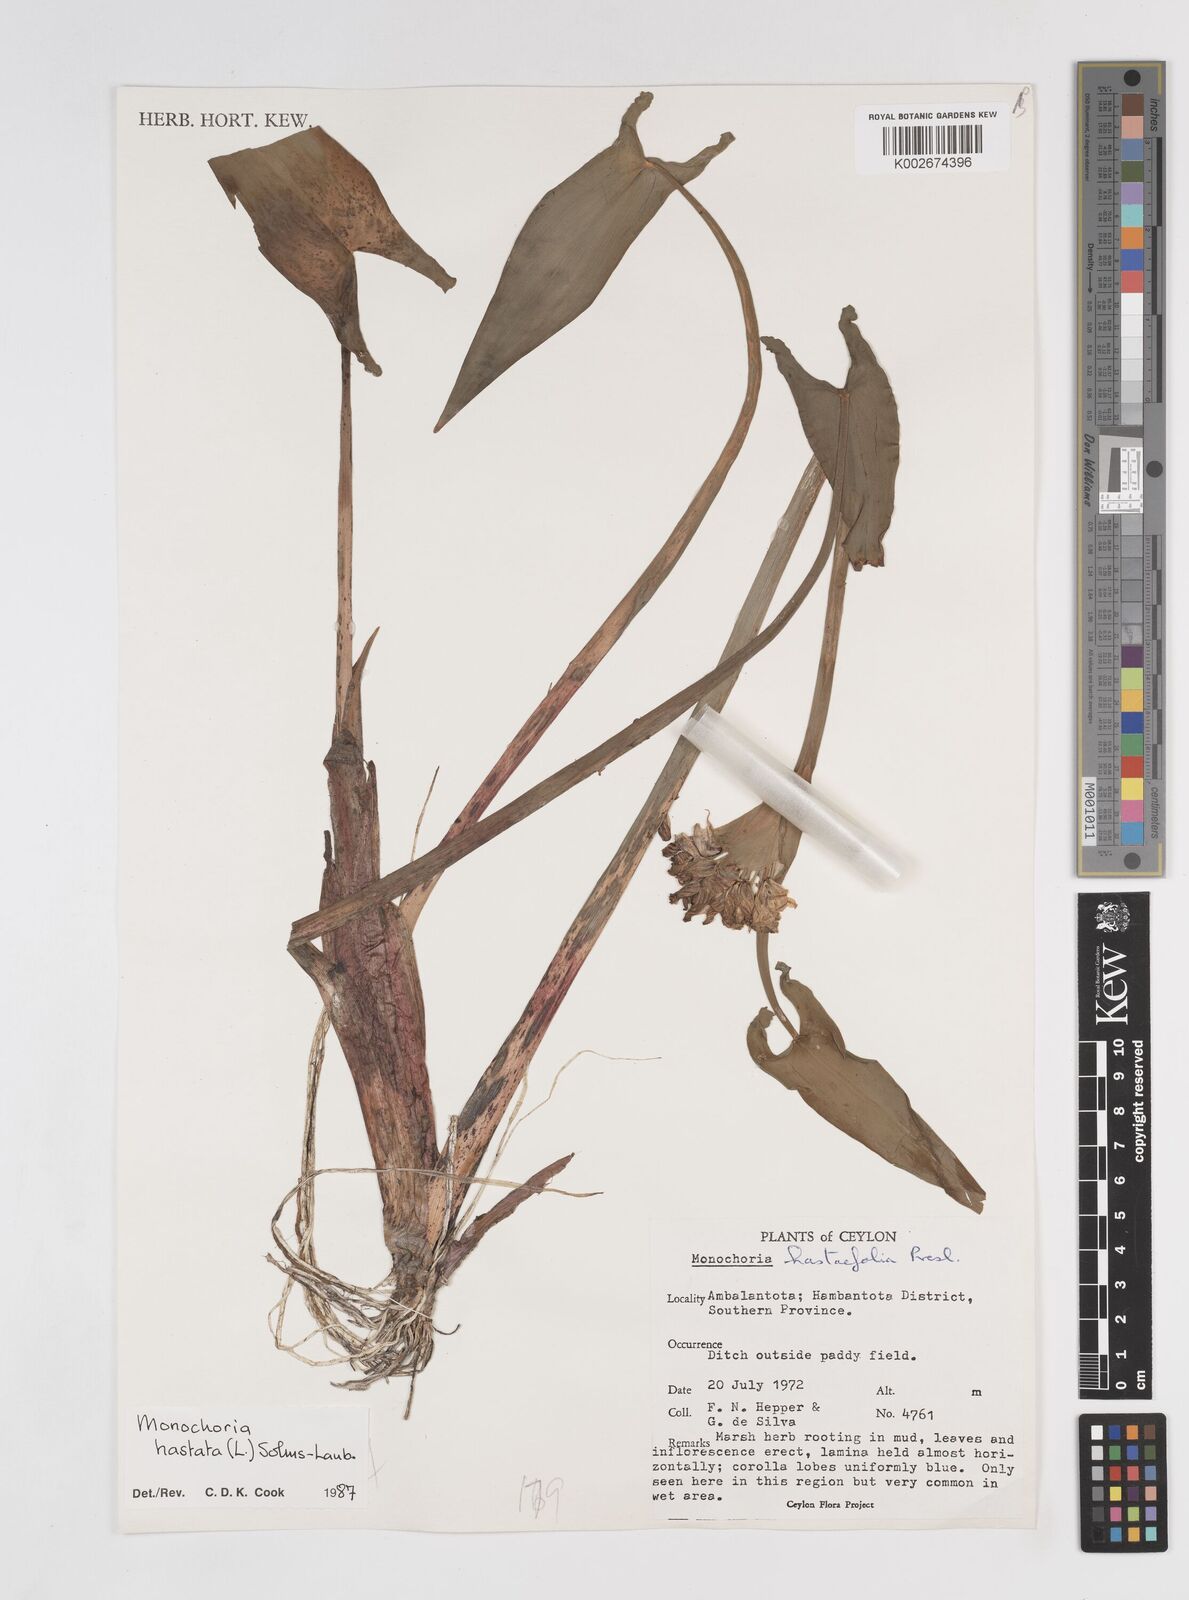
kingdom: Plantae
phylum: Tracheophyta
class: Liliopsida
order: Commelinales
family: Pontederiaceae
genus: Pontederia
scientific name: Pontederia hastata
